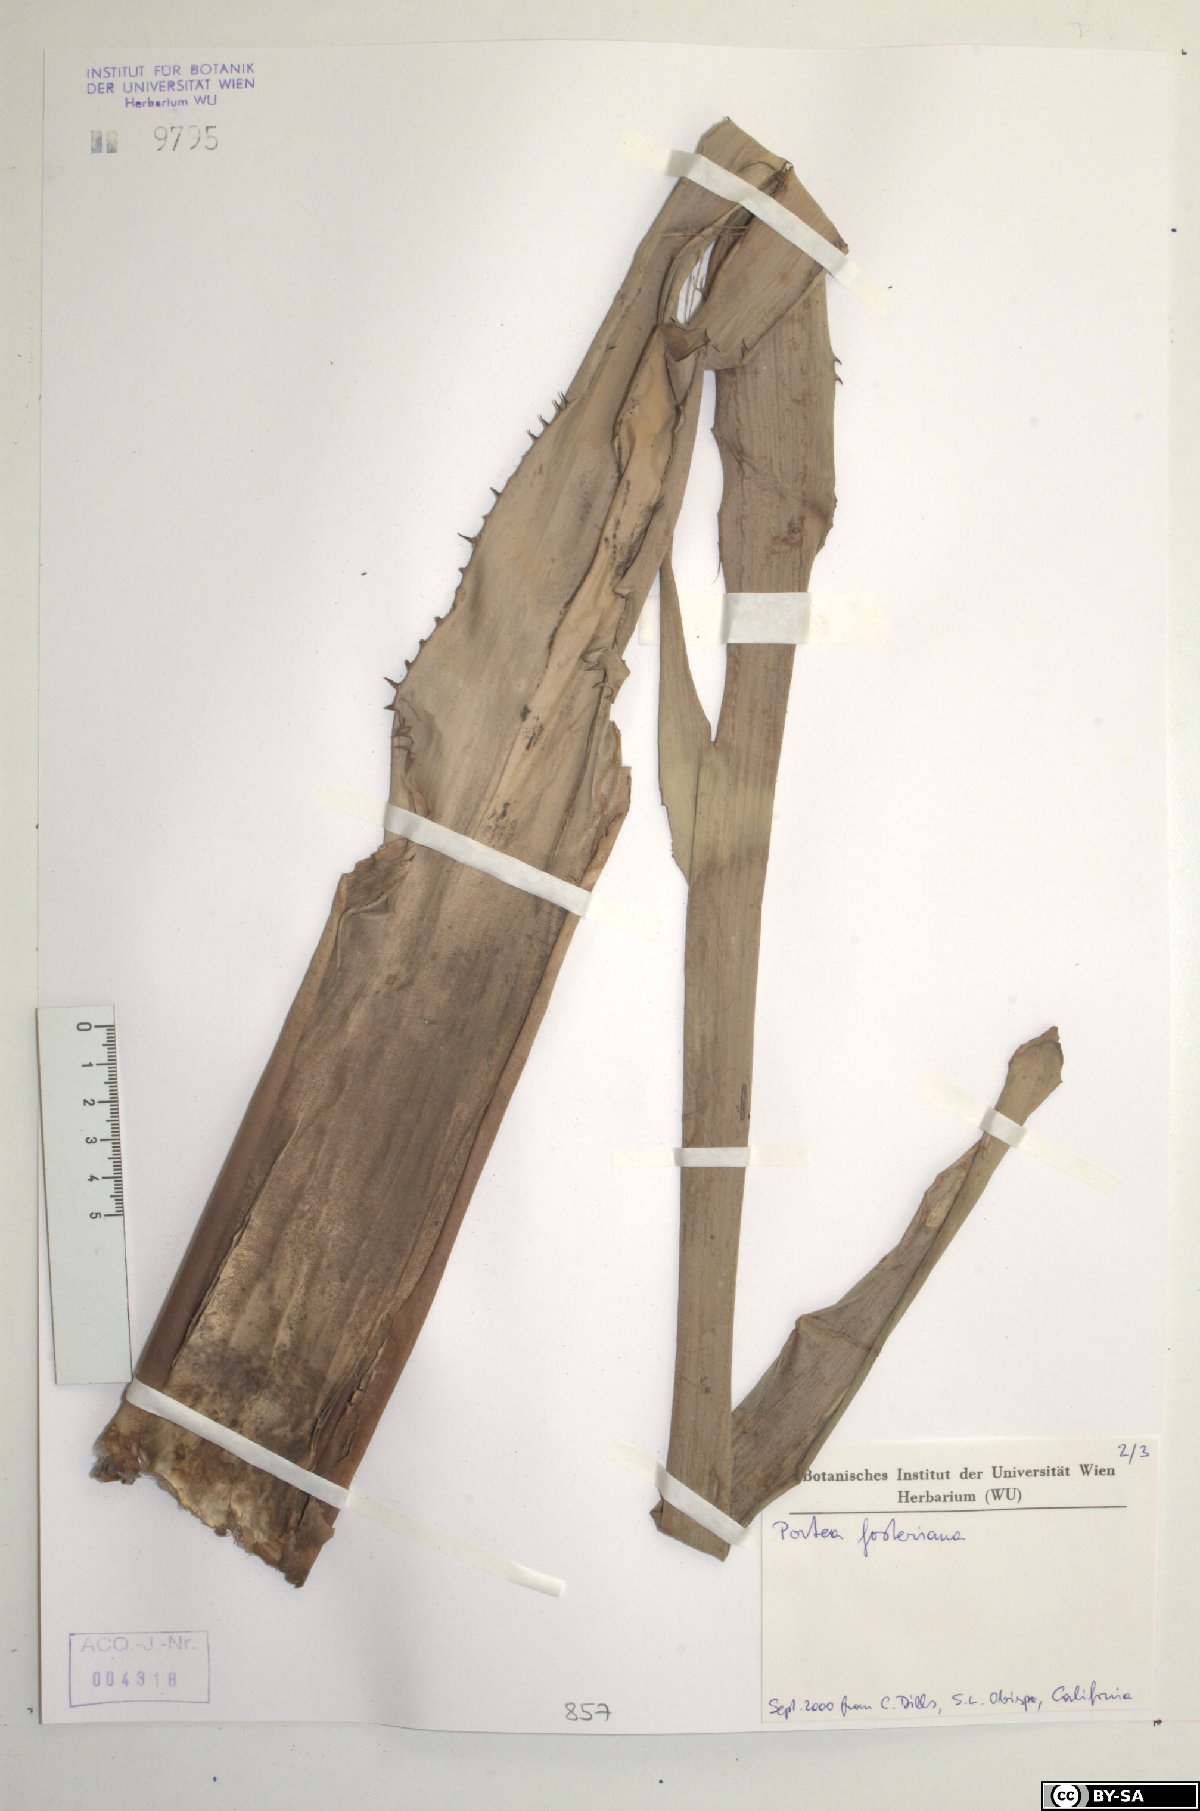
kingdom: Plantae
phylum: Tracheophyta
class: Liliopsida
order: Poales
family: Bromeliaceae
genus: Portea
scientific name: Portea fosteriana
